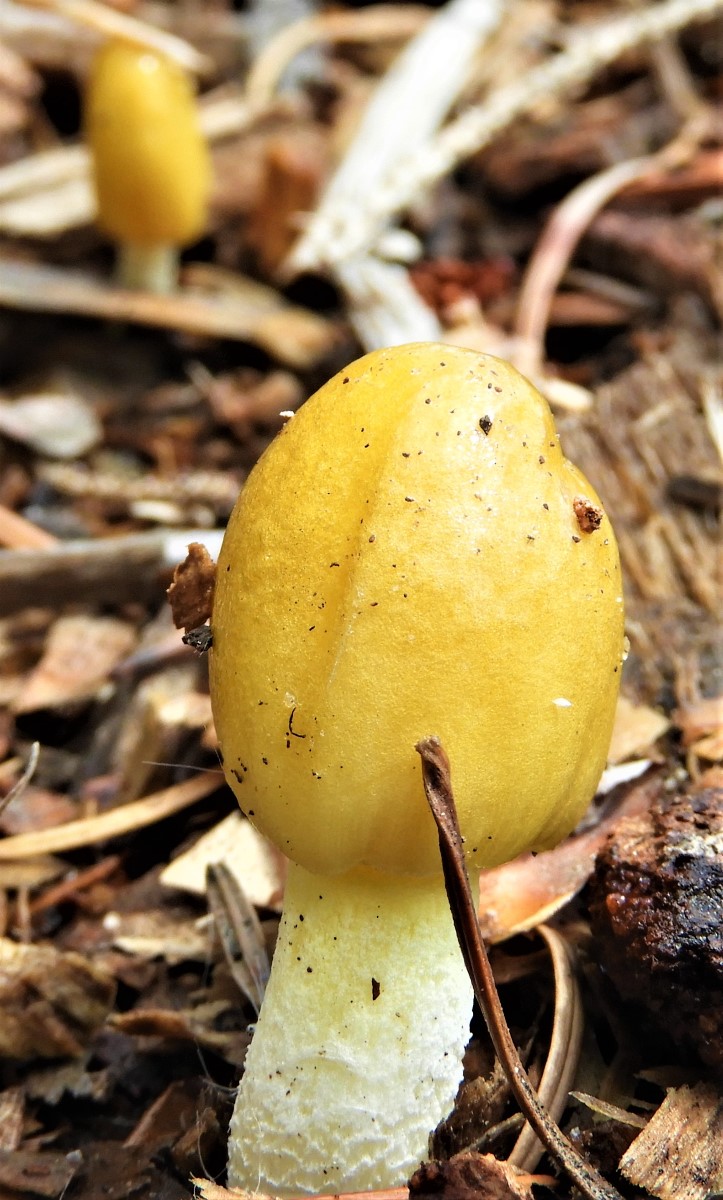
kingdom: Fungi
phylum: Basidiomycota
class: Agaricomycetes
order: Agaricales
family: Bolbitiaceae
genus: Bolbitius
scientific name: Bolbitius titubans
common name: almindelig gulhat
